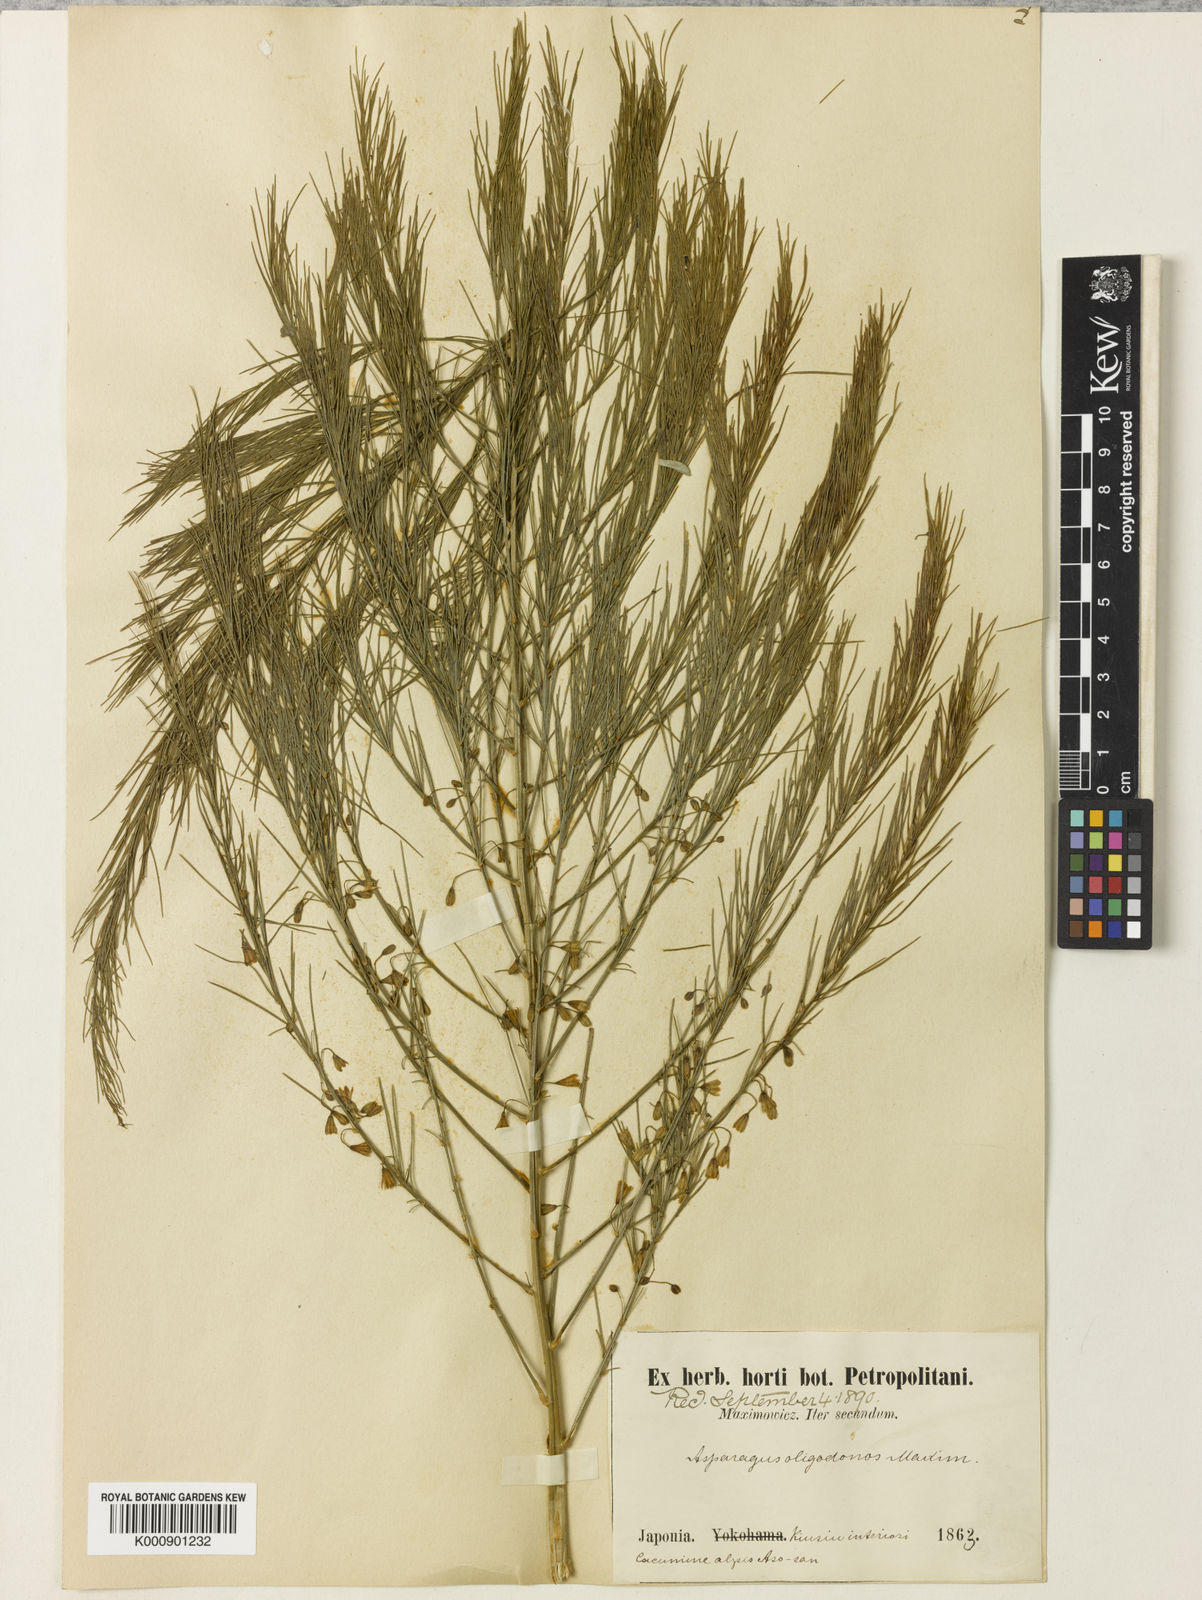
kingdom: Plantae
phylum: Tracheophyta
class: Liliopsida
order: Asparagales
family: Asparagaceae
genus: Asparagus
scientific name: Asparagus oligoclonos
